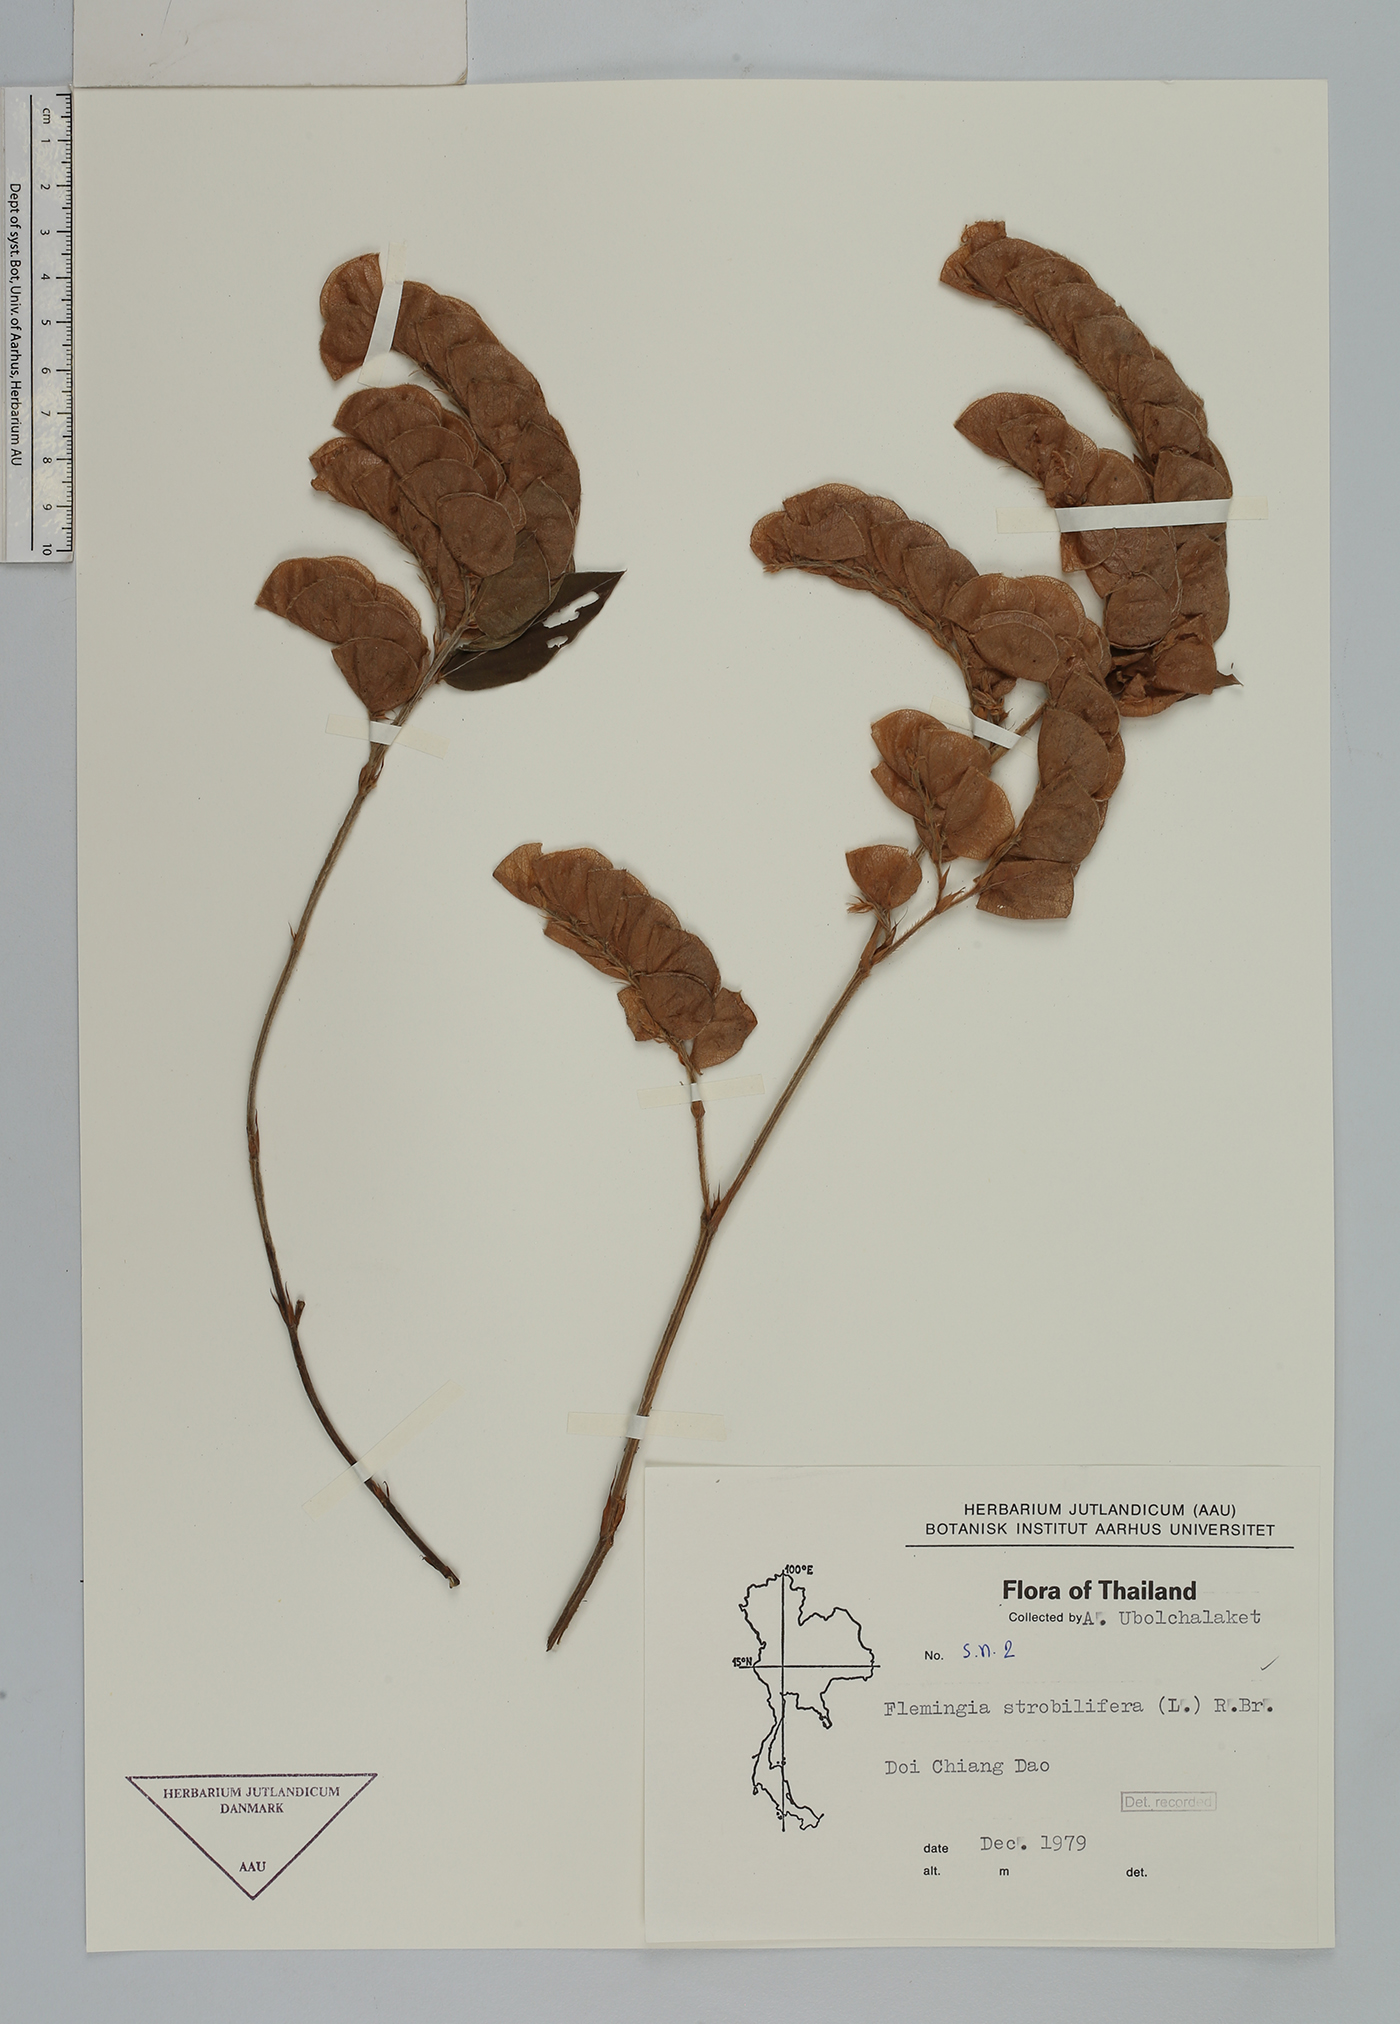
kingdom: Plantae
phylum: Tracheophyta
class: Magnoliopsida
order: Fabales
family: Fabaceae
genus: Flemingia
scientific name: Flemingia strobilifera
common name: Wild hops
